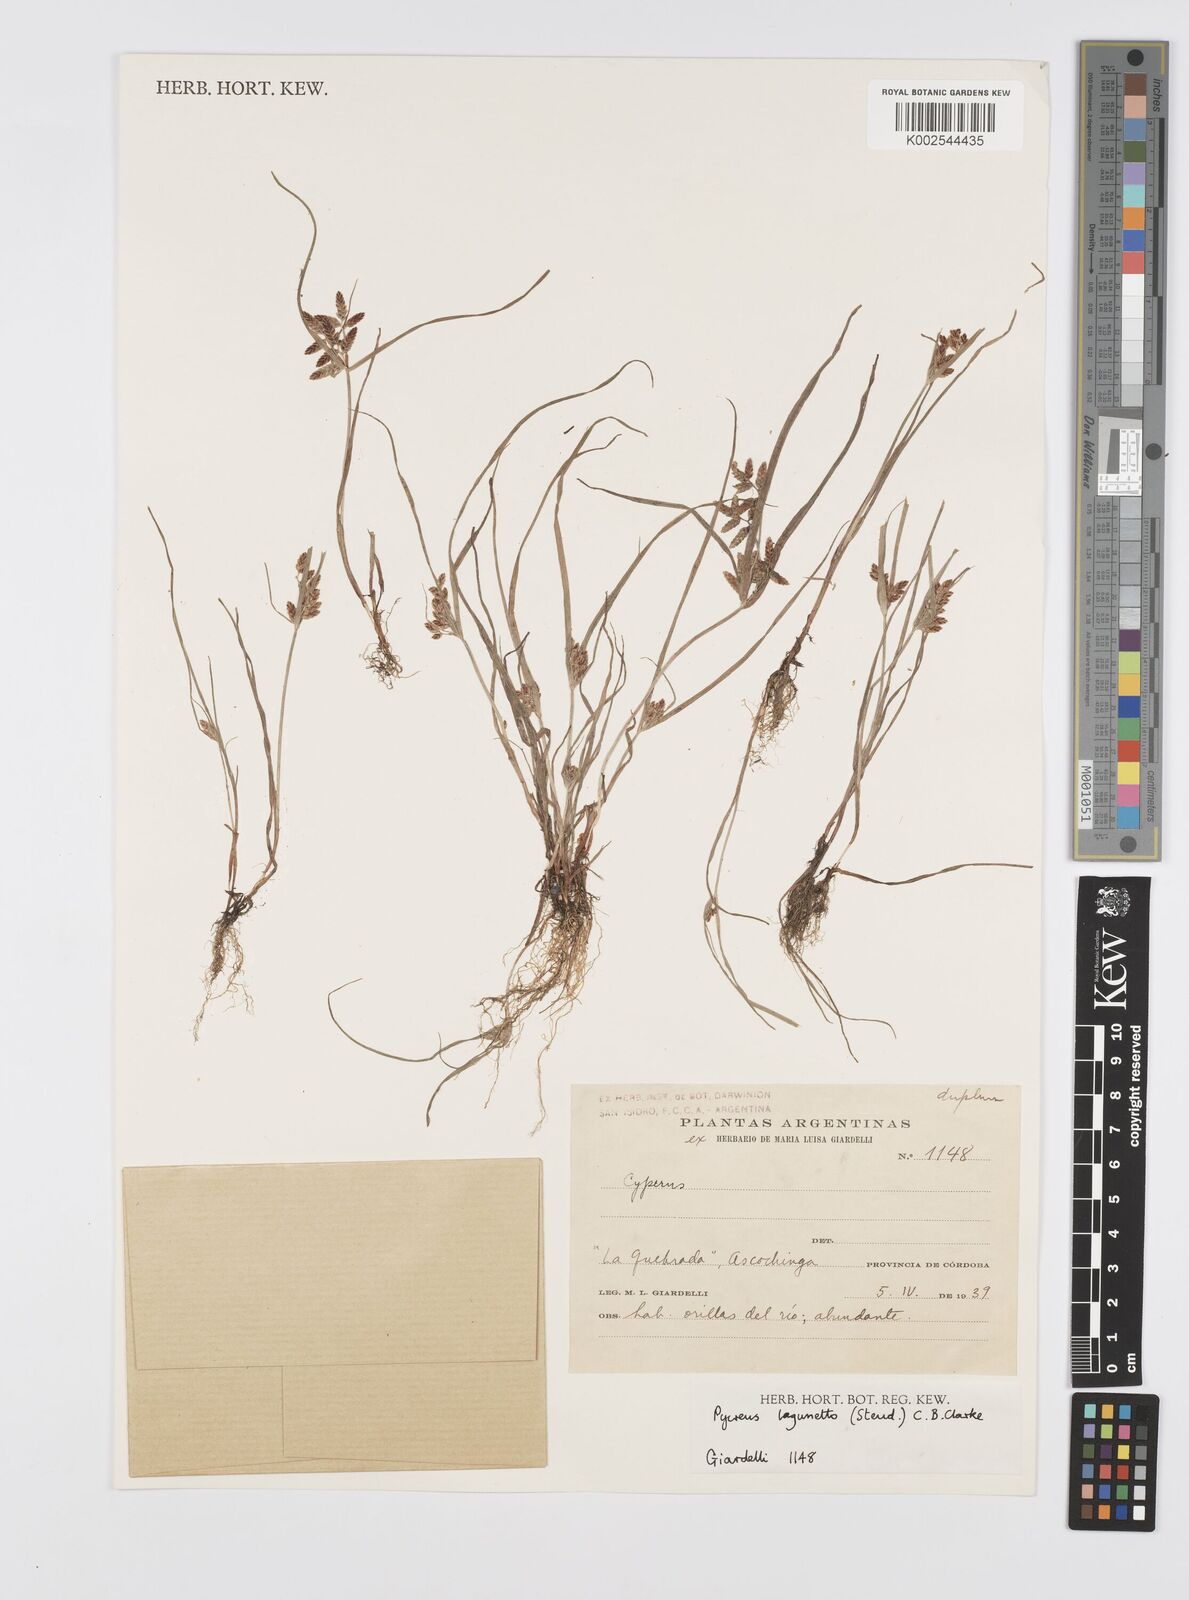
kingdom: Plantae
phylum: Tracheophyta
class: Liliopsida
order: Poales
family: Cyperaceae
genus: Cyperus
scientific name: Cyperus bipartitus
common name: Brook flatsedge
